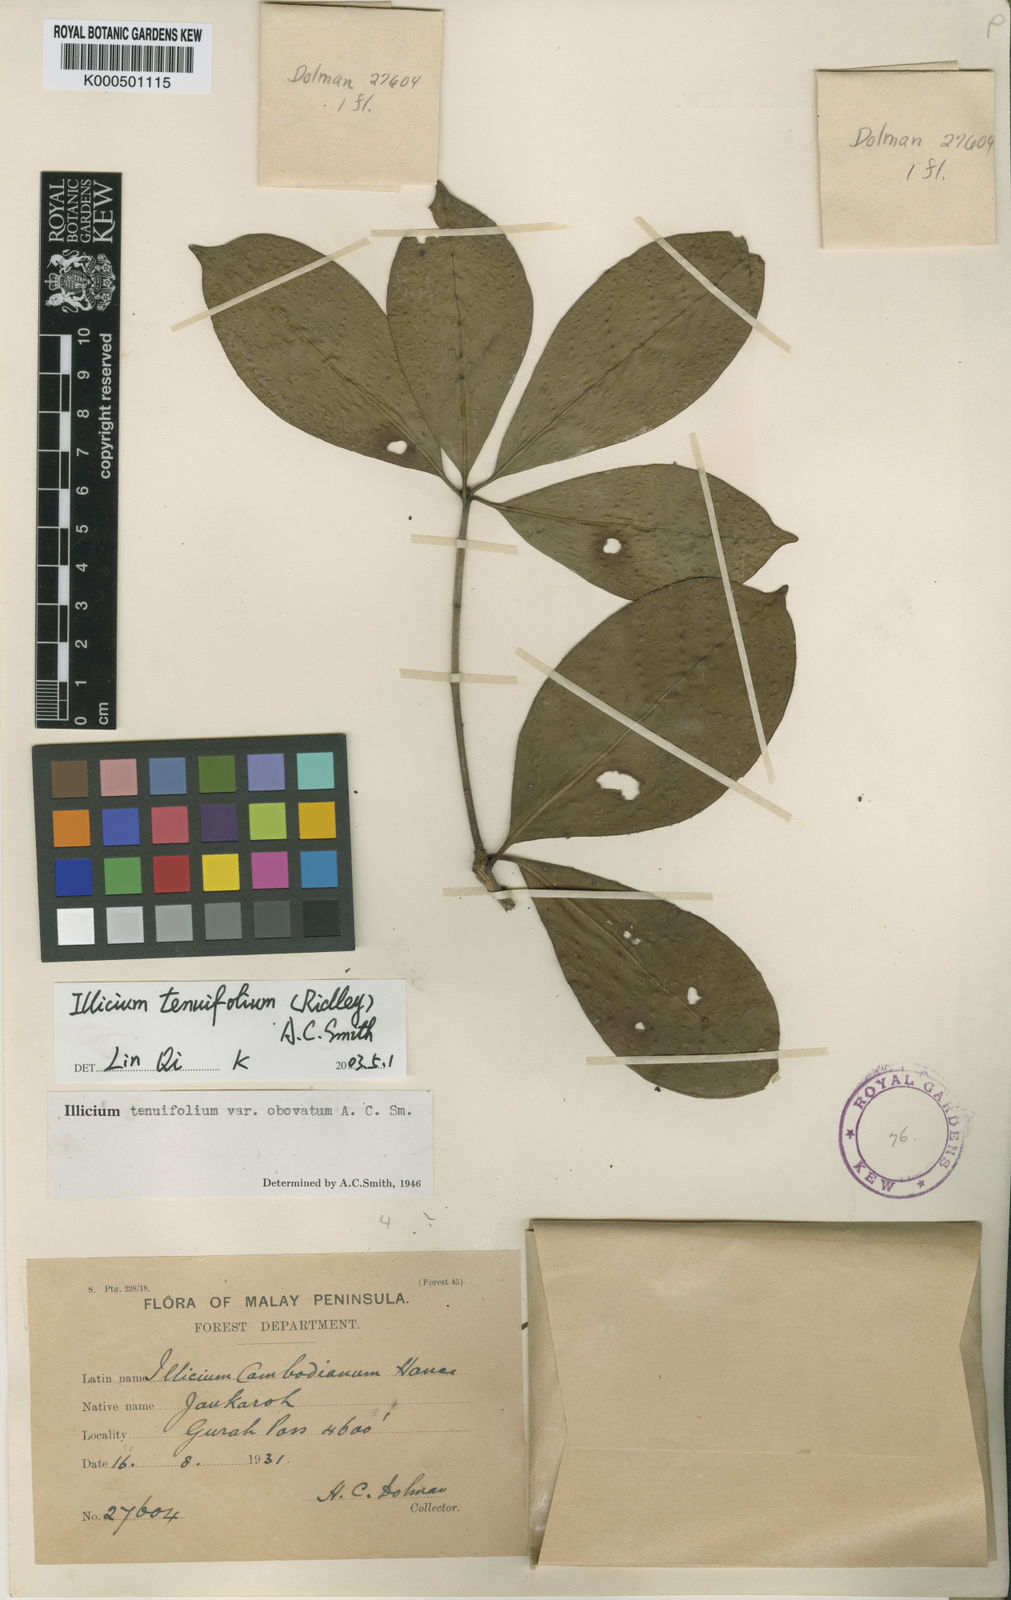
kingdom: Plantae
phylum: Tracheophyta
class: Magnoliopsida
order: Austrobaileyales
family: Schisandraceae
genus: Illicium
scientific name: Illicium tenuifolium
